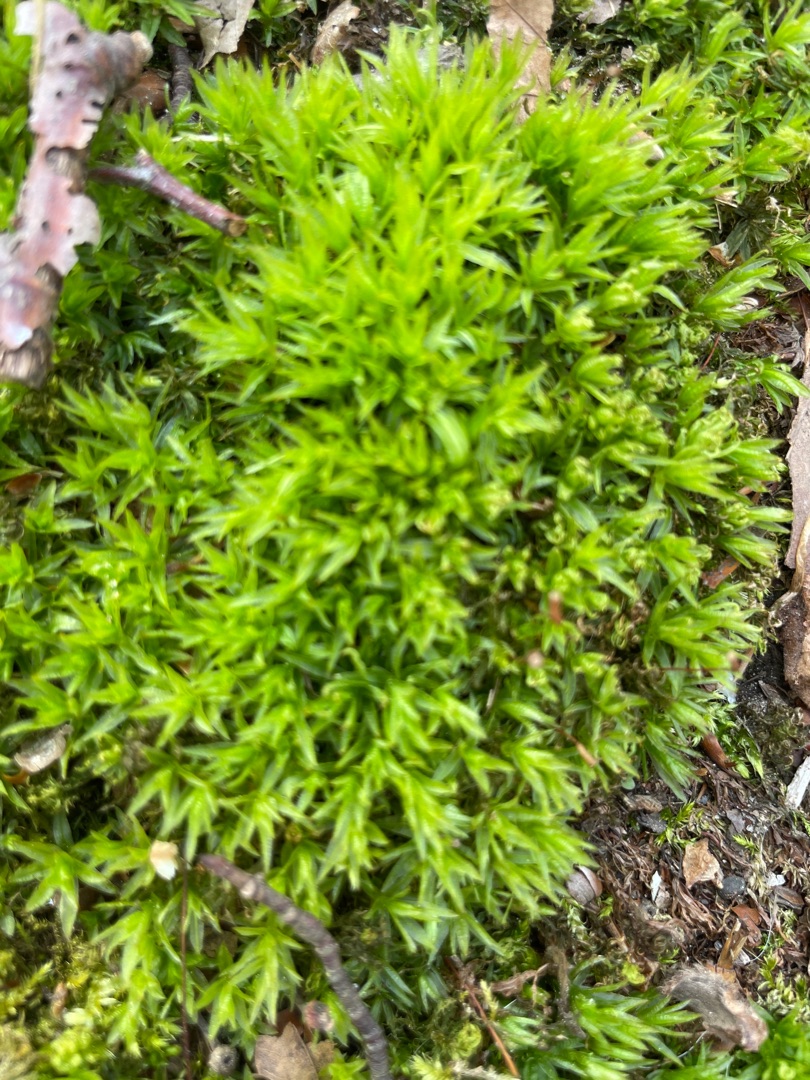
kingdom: Plantae
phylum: Bryophyta
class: Polytrichopsida
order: Polytrichales
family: Polytrichaceae
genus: Atrichum
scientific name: Atrichum undulatum
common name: Bølget katrinemos
